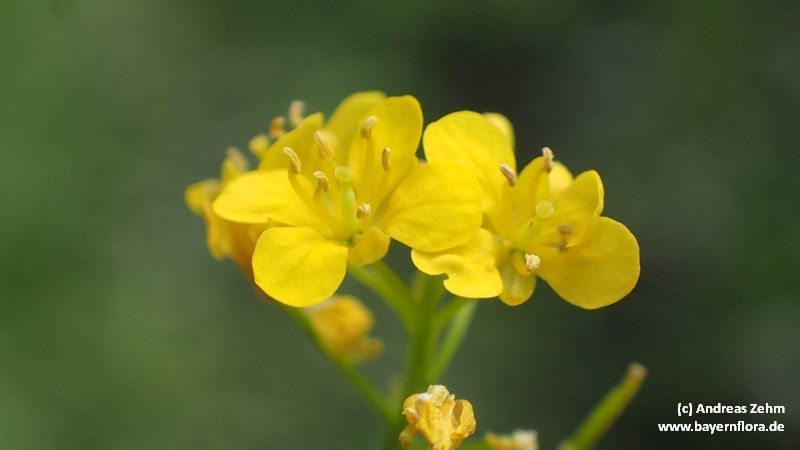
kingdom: Plantae
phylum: Tracheophyta
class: Magnoliopsida
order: Brassicales
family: Brassicaceae
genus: Rorippa
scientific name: Rorippa sylvestris
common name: Creeping yellowcress
